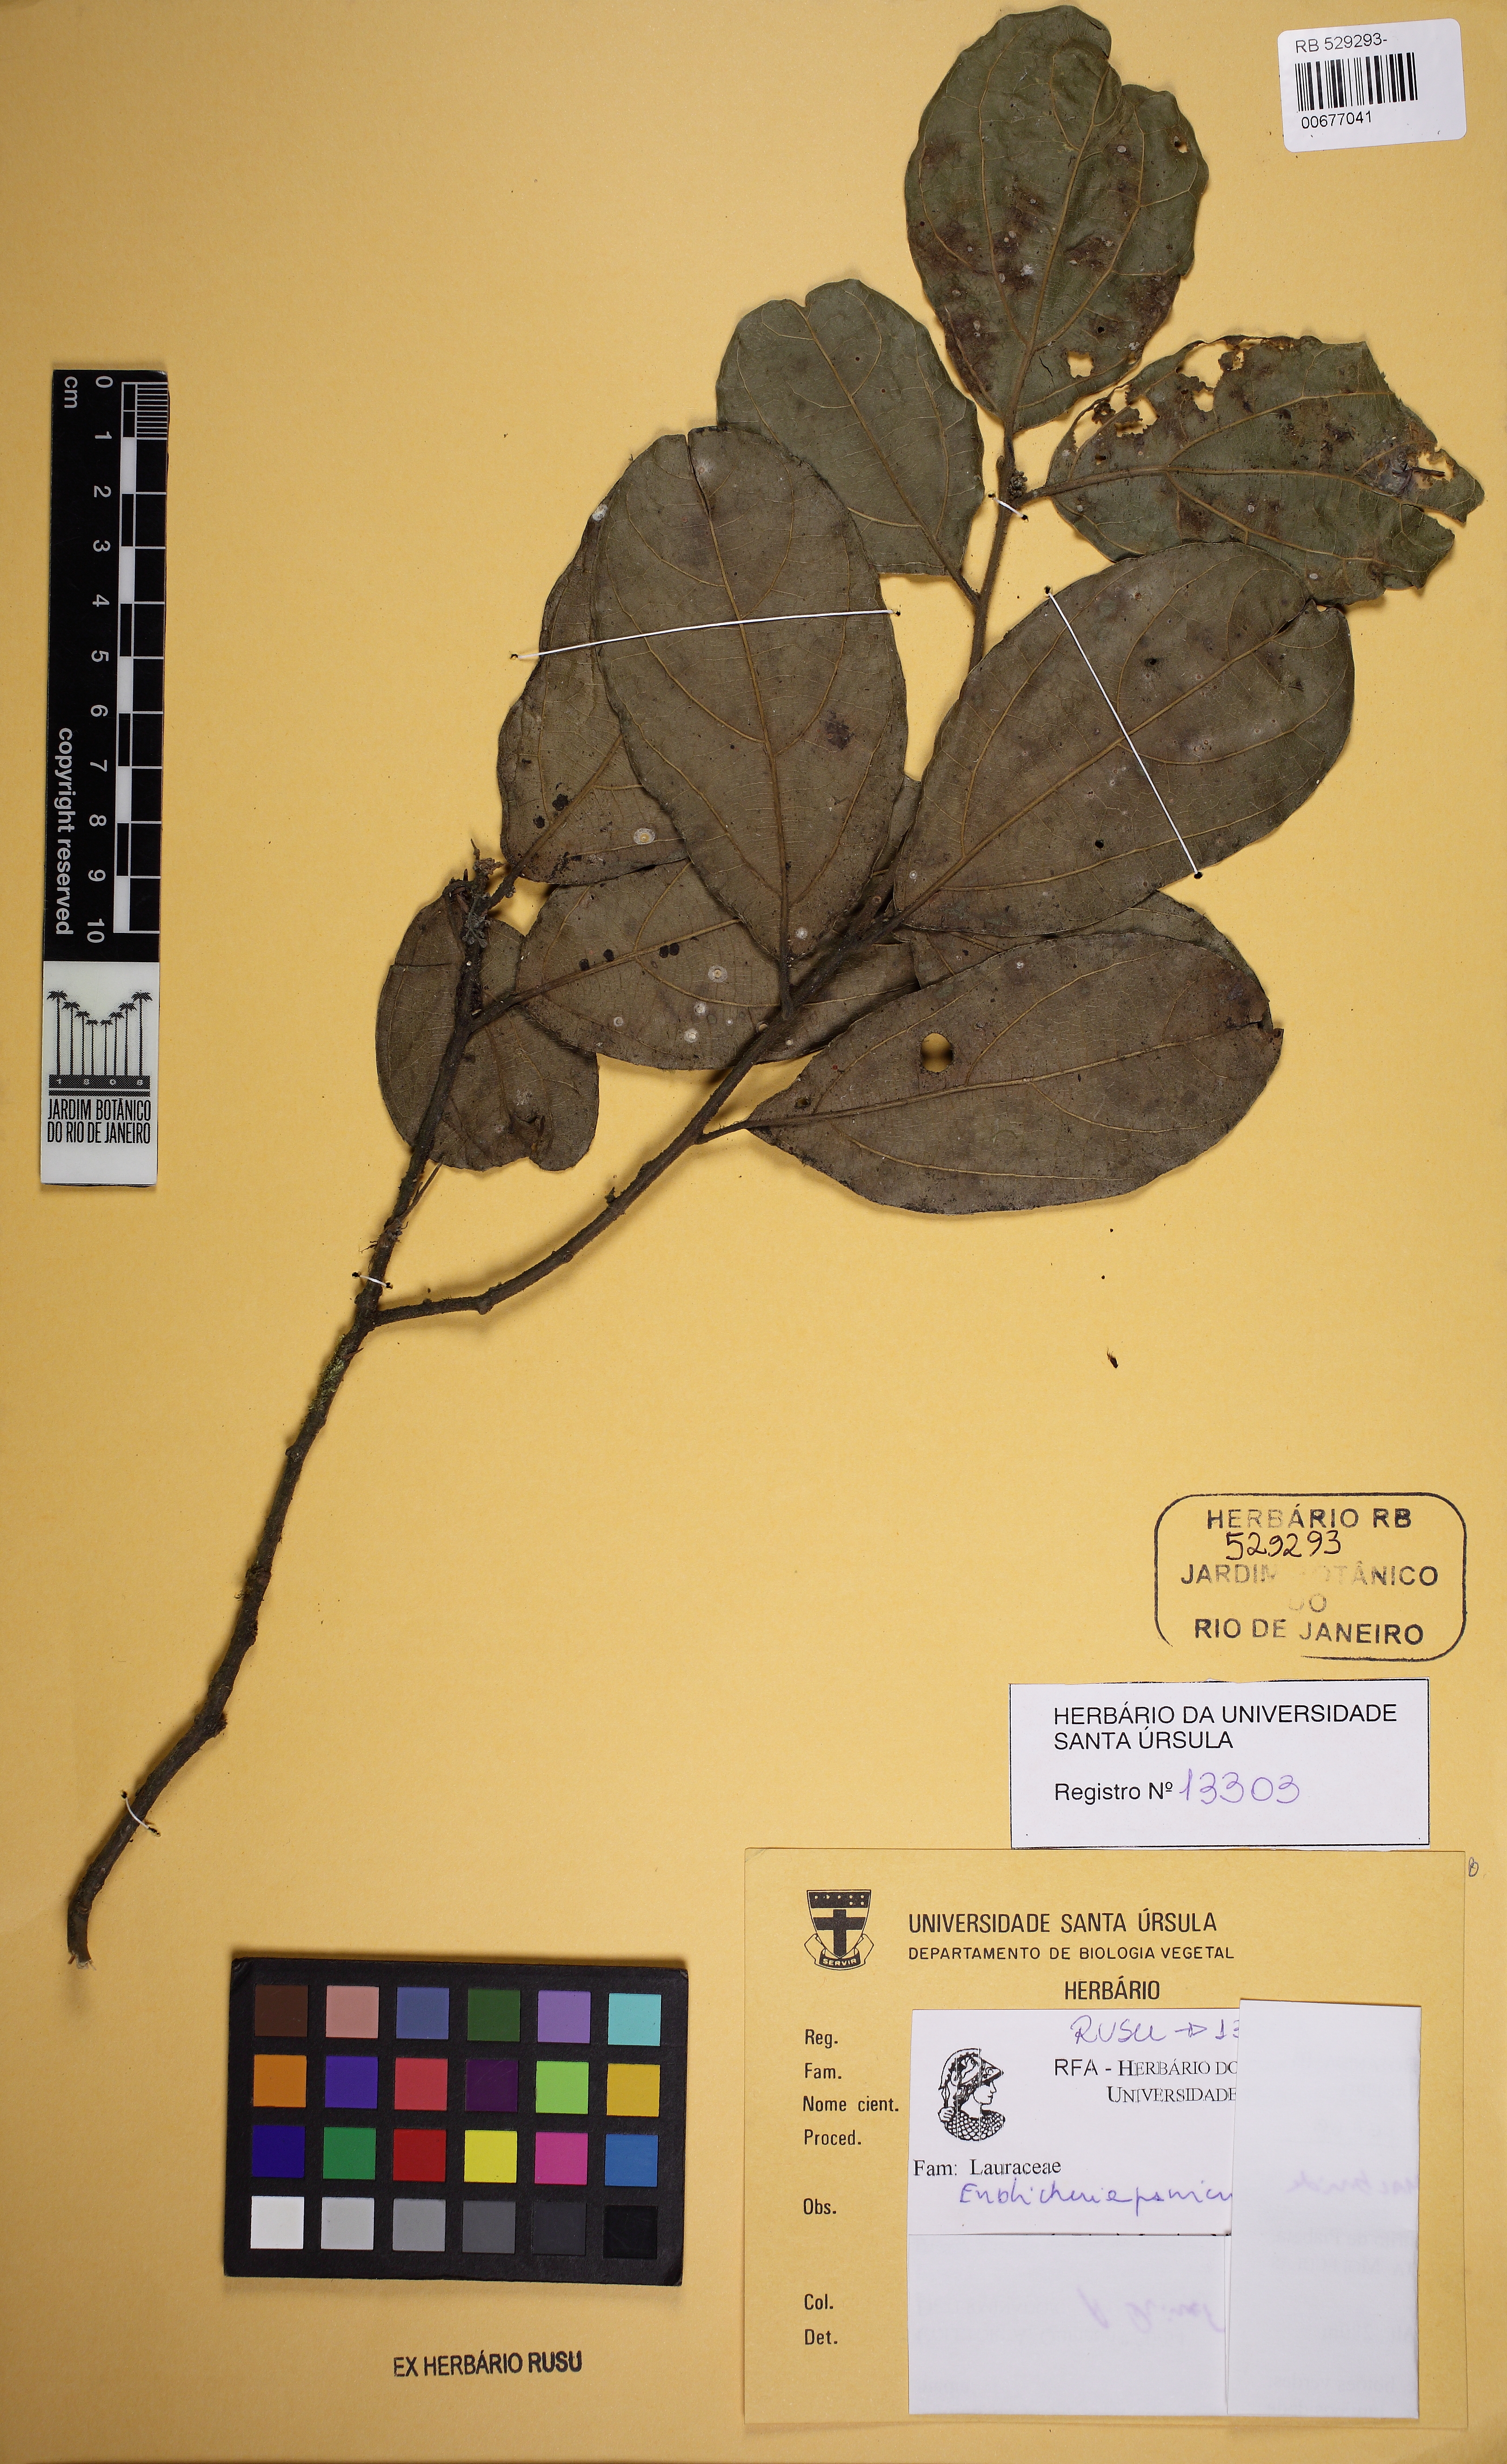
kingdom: Plantae
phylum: Tracheophyta
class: Magnoliopsida
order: Laurales
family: Lauraceae
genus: Endlicheria
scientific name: Endlicheria paniculata
